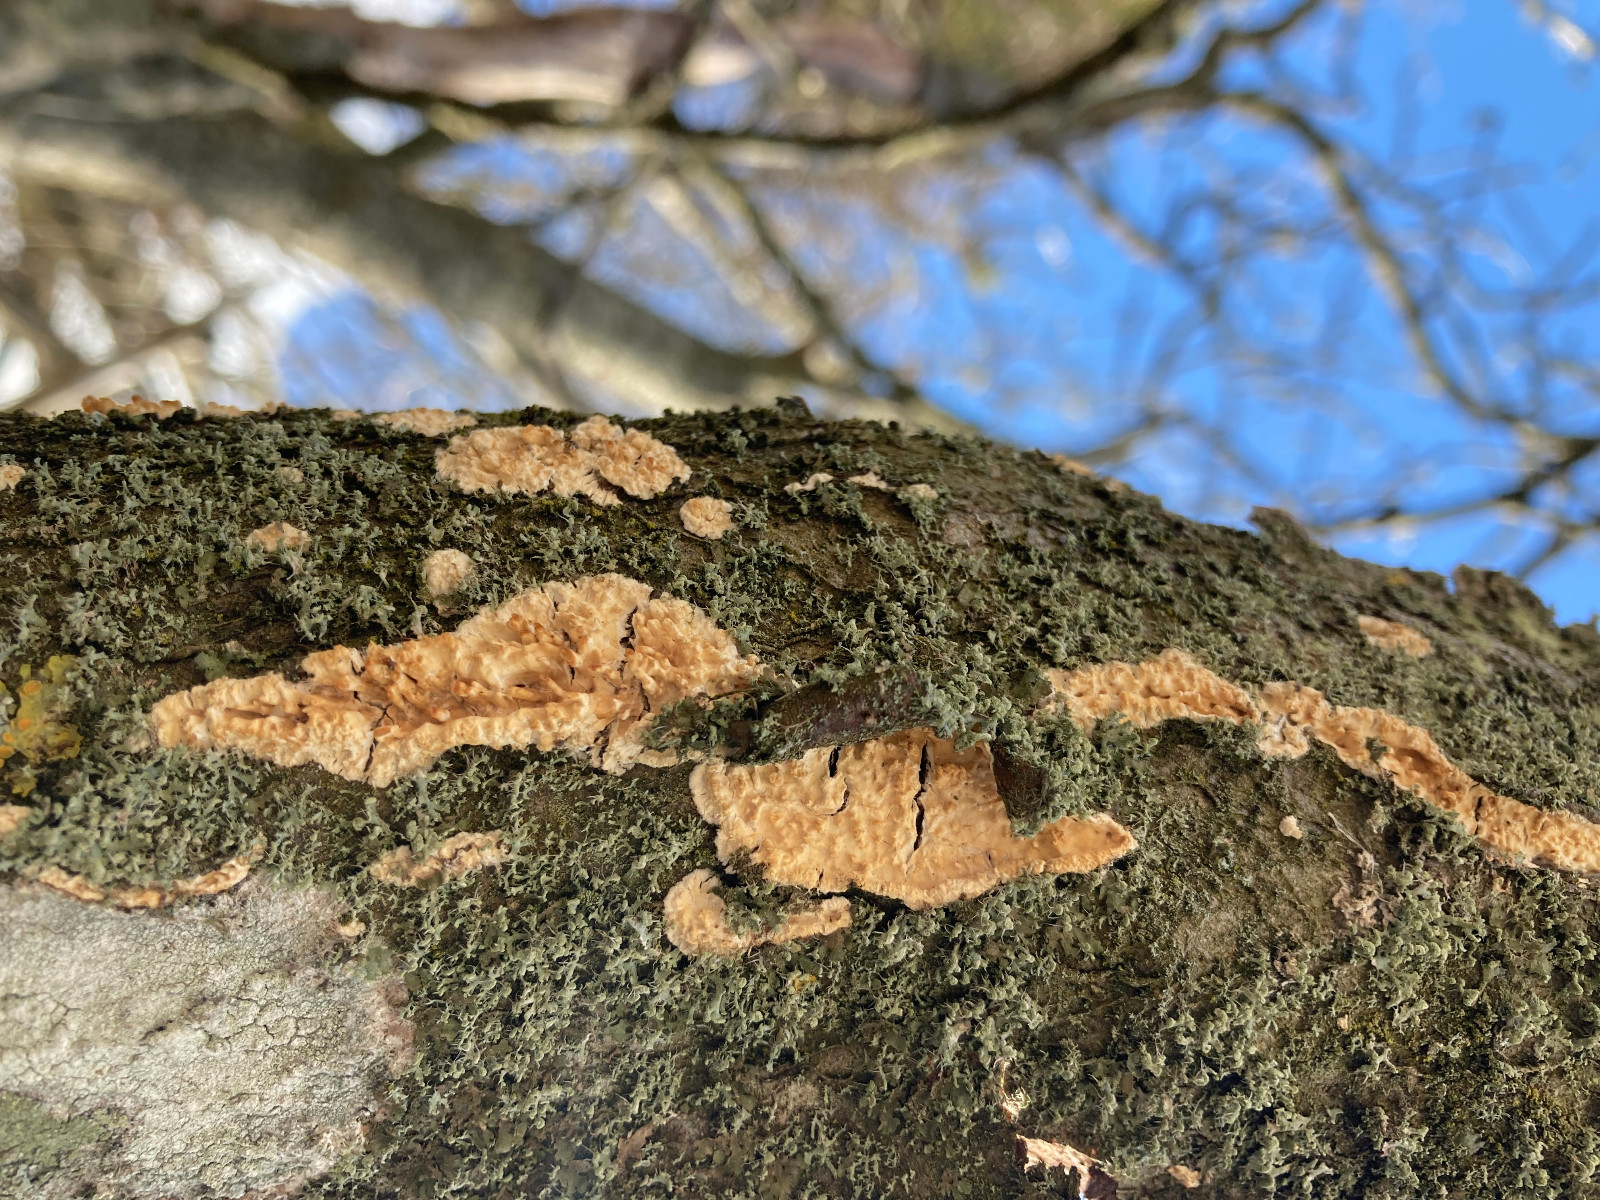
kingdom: Fungi
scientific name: Fungi
